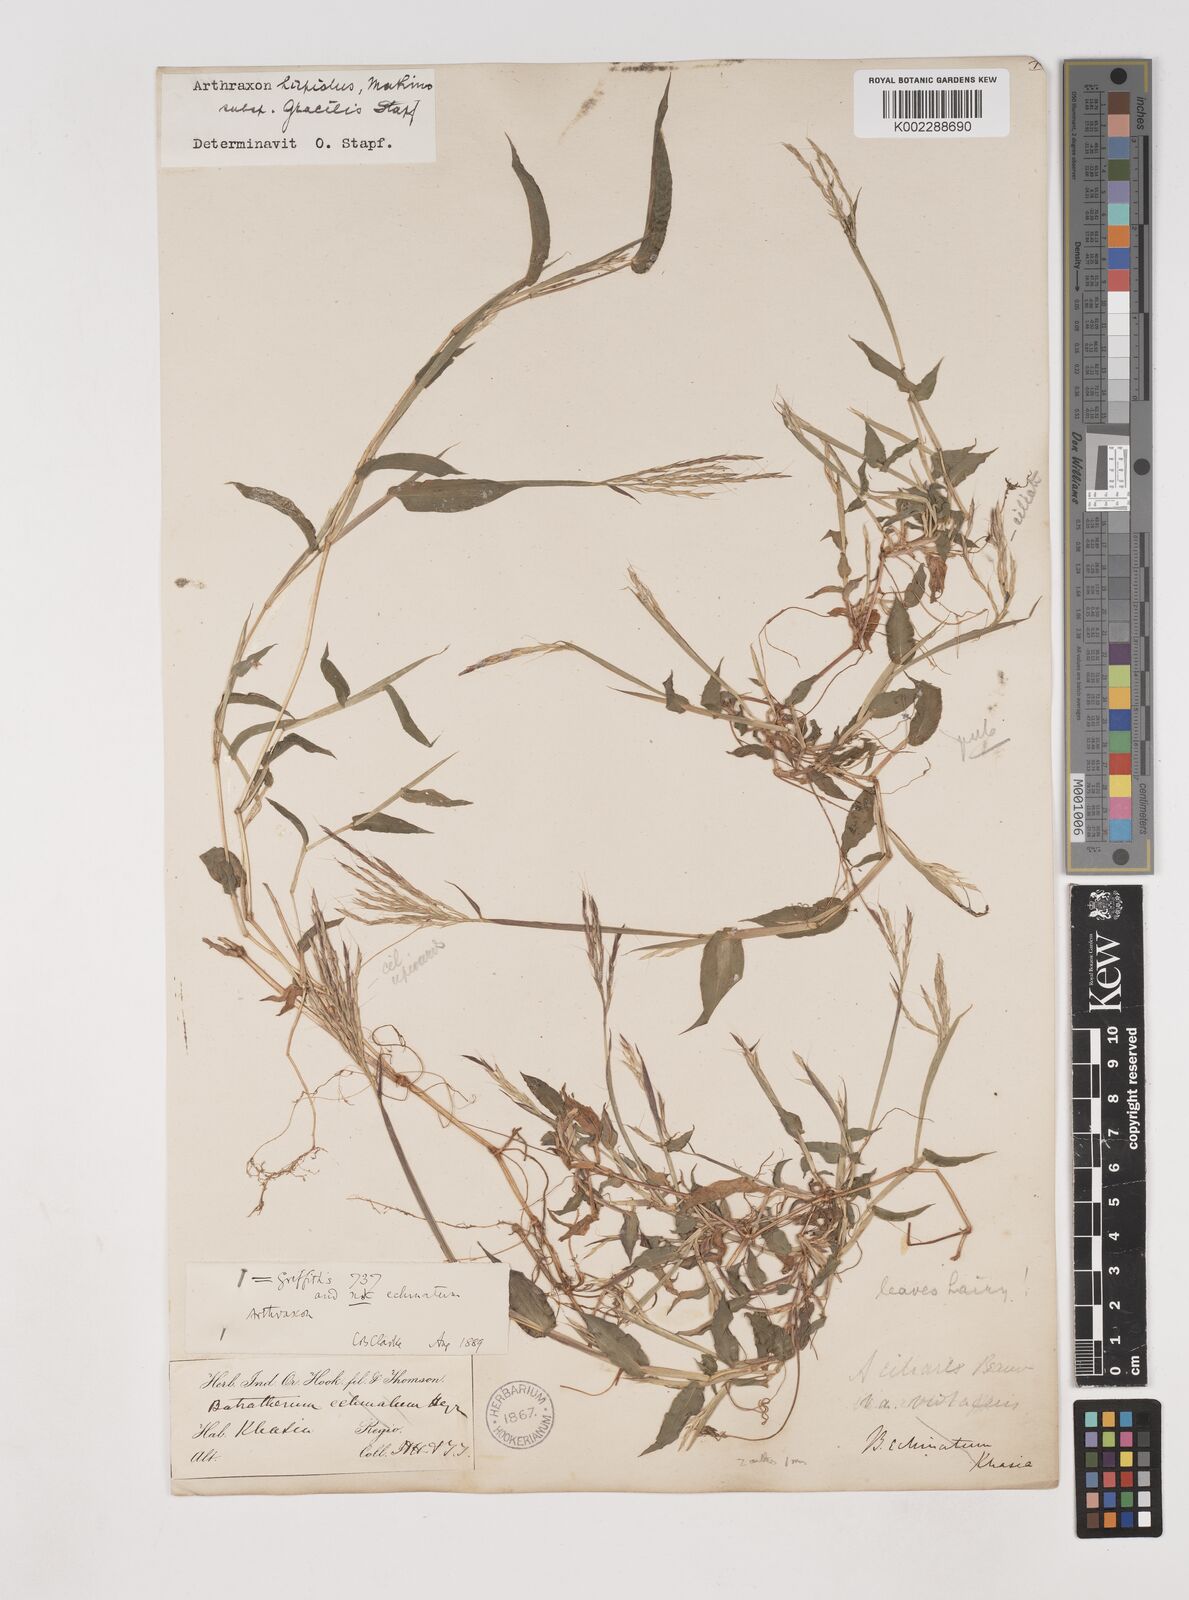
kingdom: Plantae
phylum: Tracheophyta
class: Liliopsida
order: Poales
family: Poaceae
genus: Arthraxon
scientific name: Arthraxon hispidus
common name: Small carpgrass
